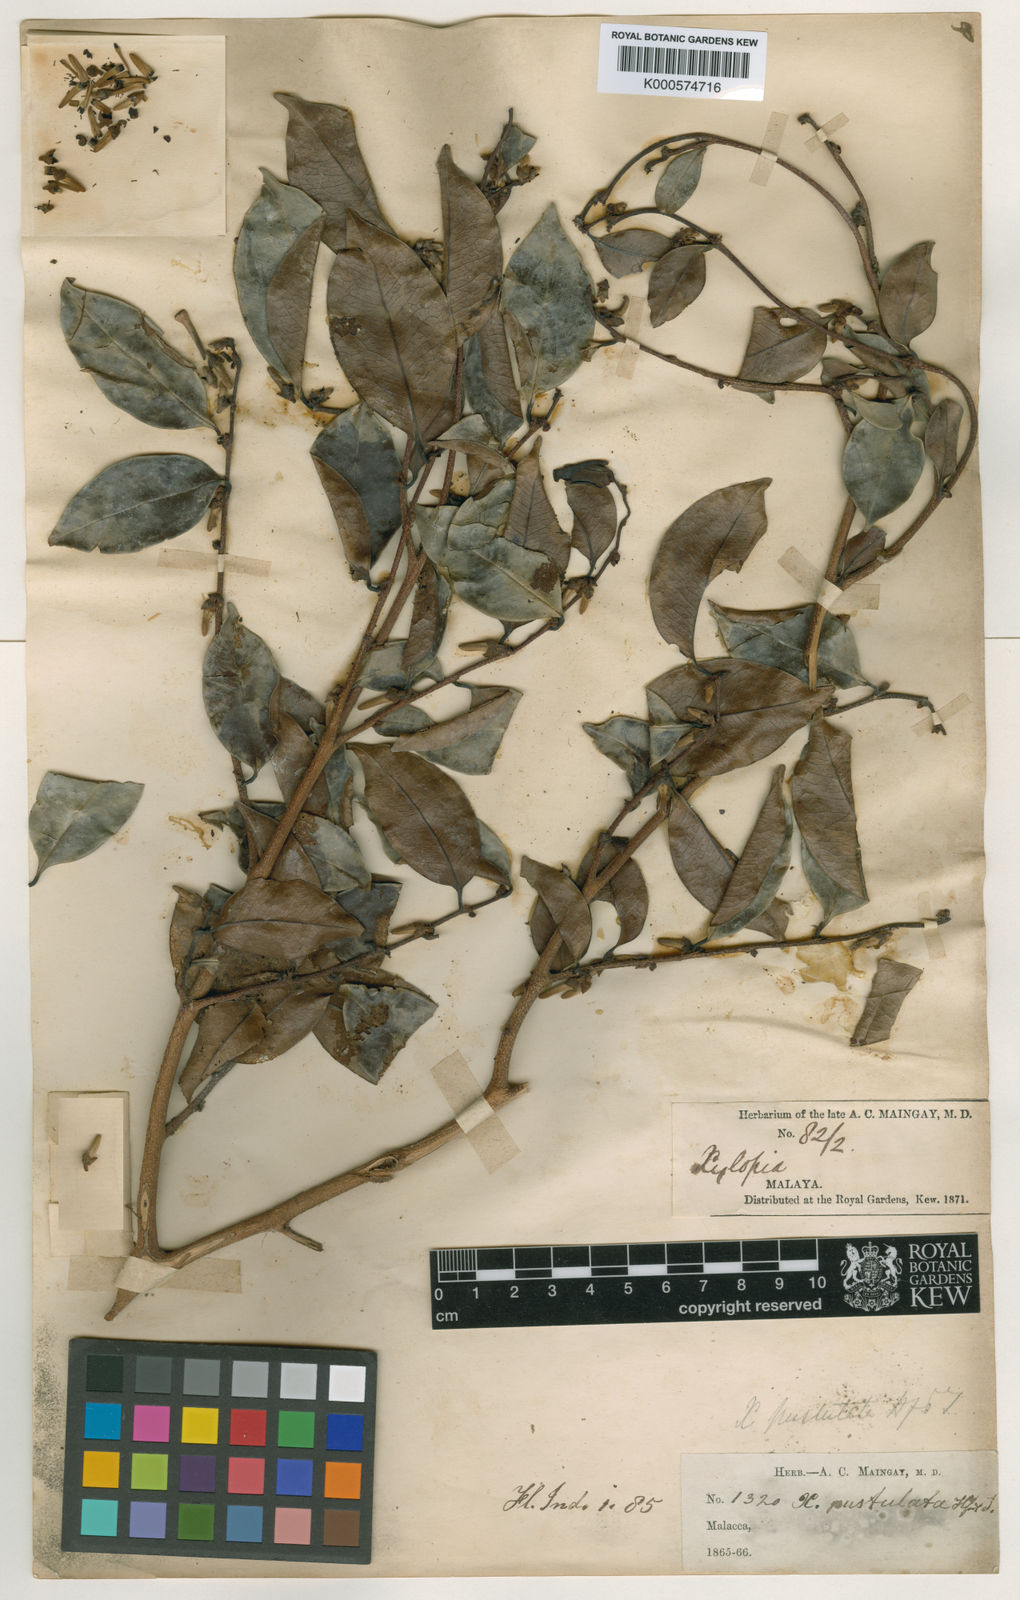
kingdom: Plantae
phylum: Tracheophyta
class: Magnoliopsida
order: Magnoliales
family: Annonaceae
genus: Xylopia
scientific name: Xylopia malayana
